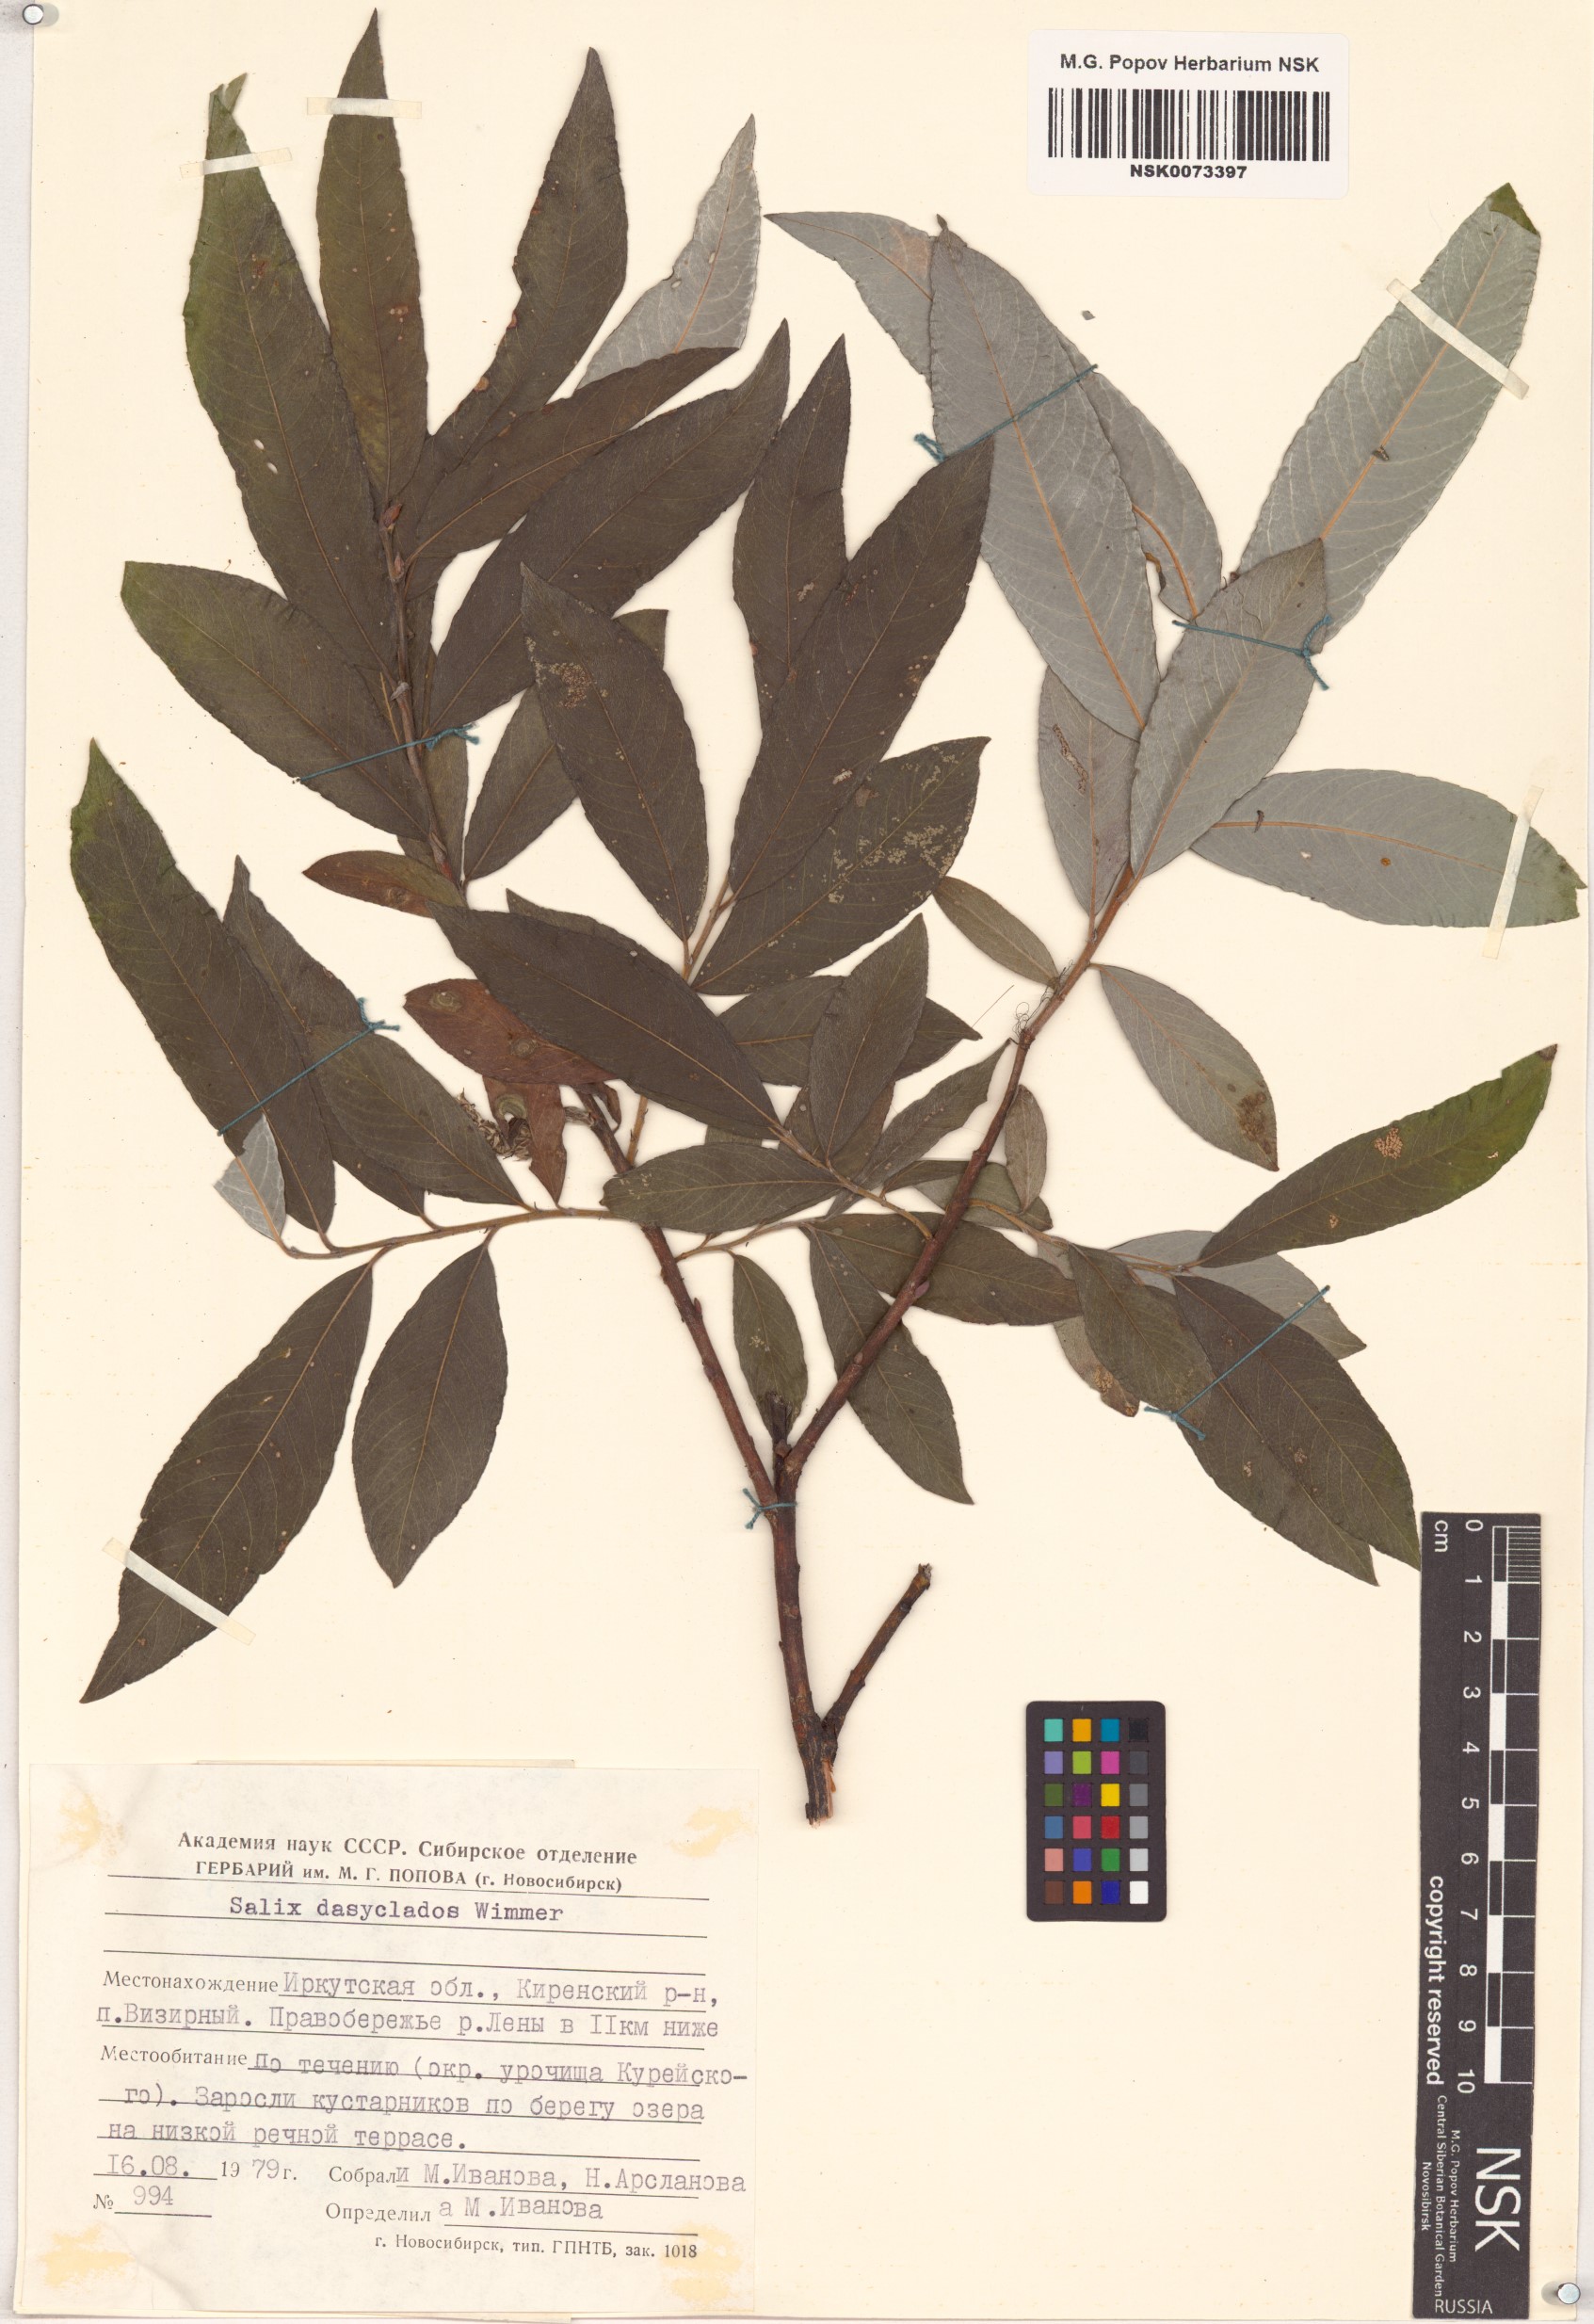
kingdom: Plantae
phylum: Tracheophyta
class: Magnoliopsida
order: Malpighiales
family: Salicaceae
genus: Salix
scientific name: Salix gmelinii
